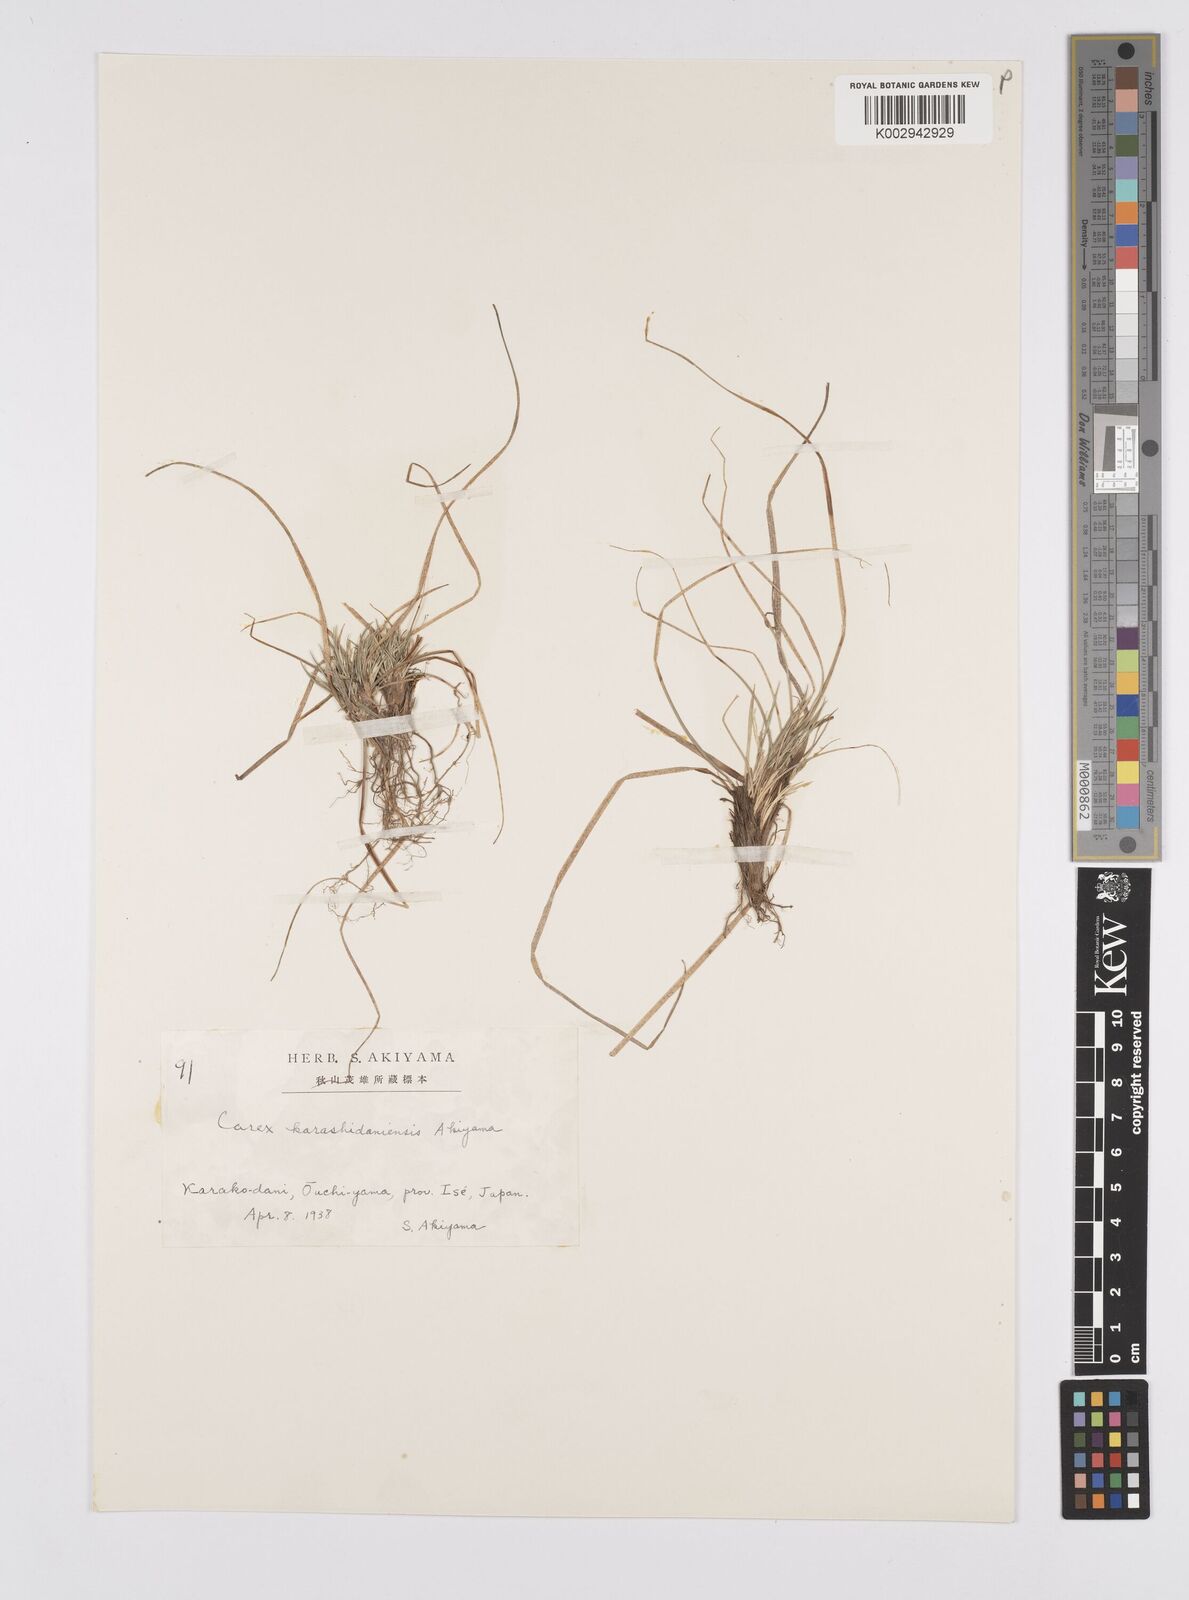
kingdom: Plantae
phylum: Tracheophyta
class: Liliopsida
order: Poales
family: Cyperaceae
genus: Carex
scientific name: Carex karashidaniensis
